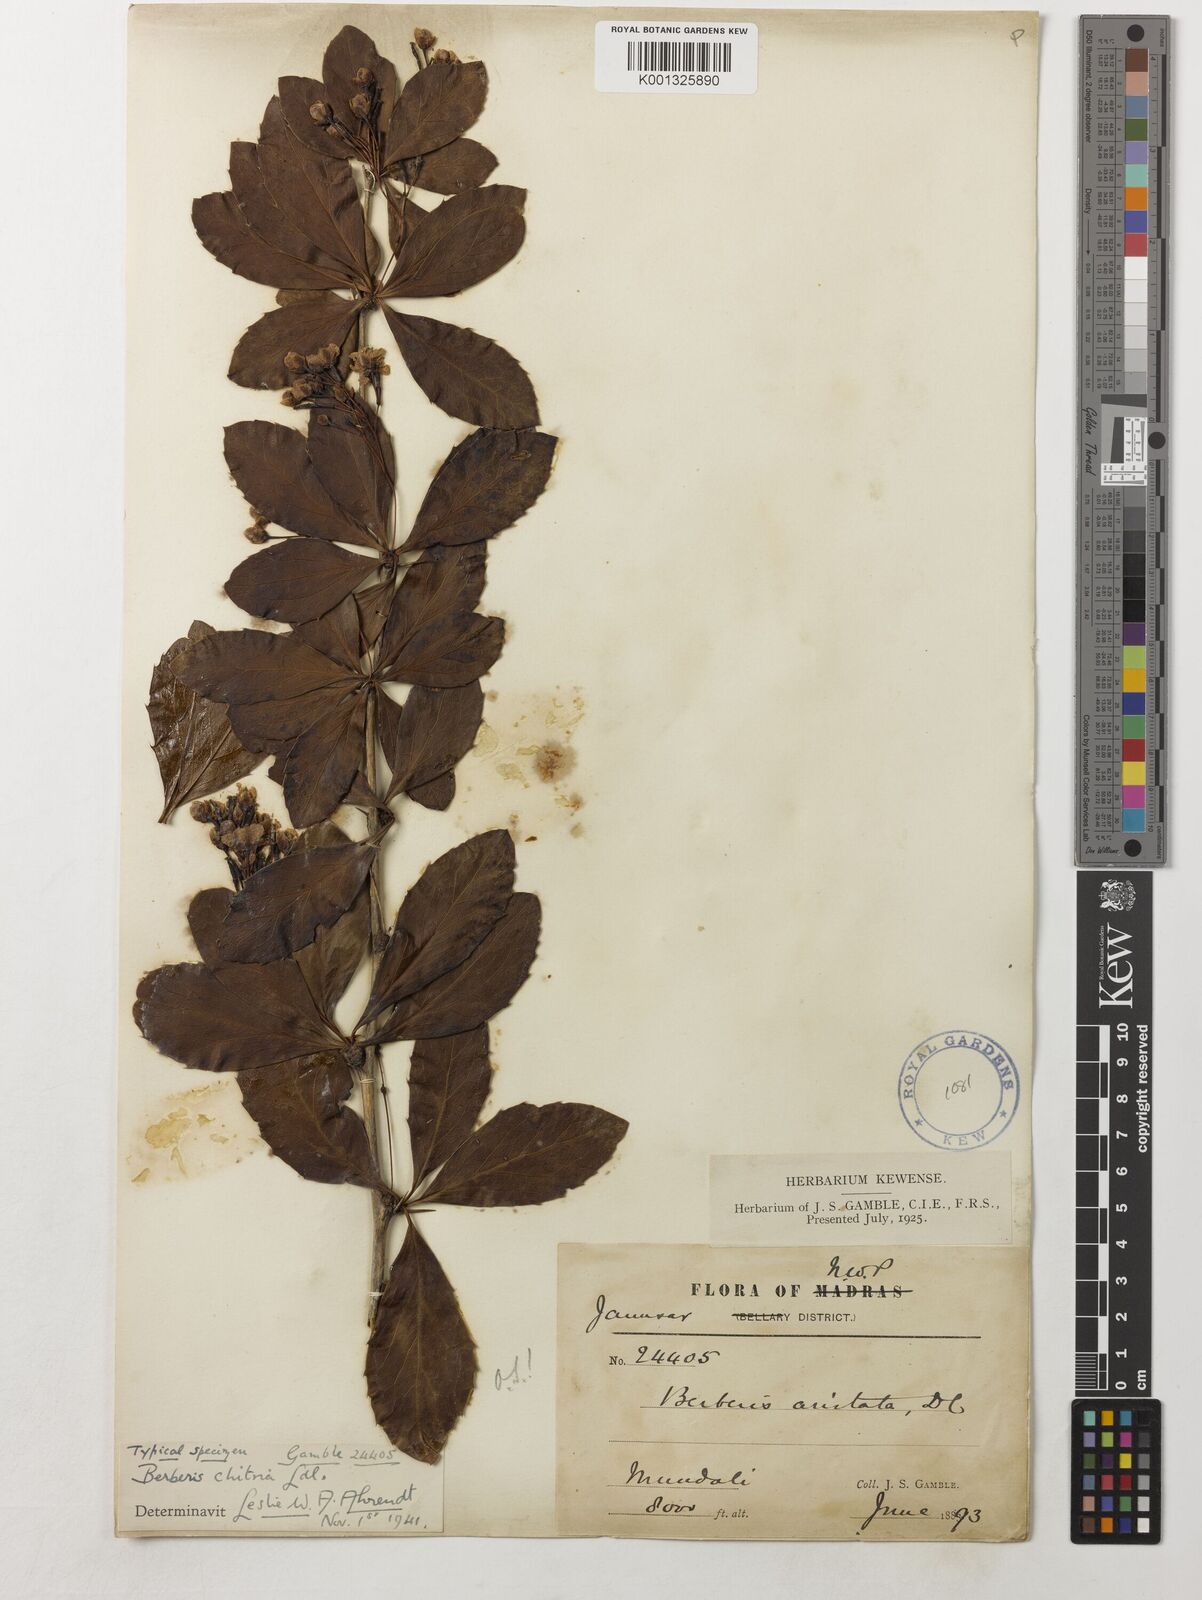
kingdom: Plantae
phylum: Tracheophyta
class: Magnoliopsida
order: Ranunculales
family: Berberidaceae
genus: Berberis
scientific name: Berberis chitria
